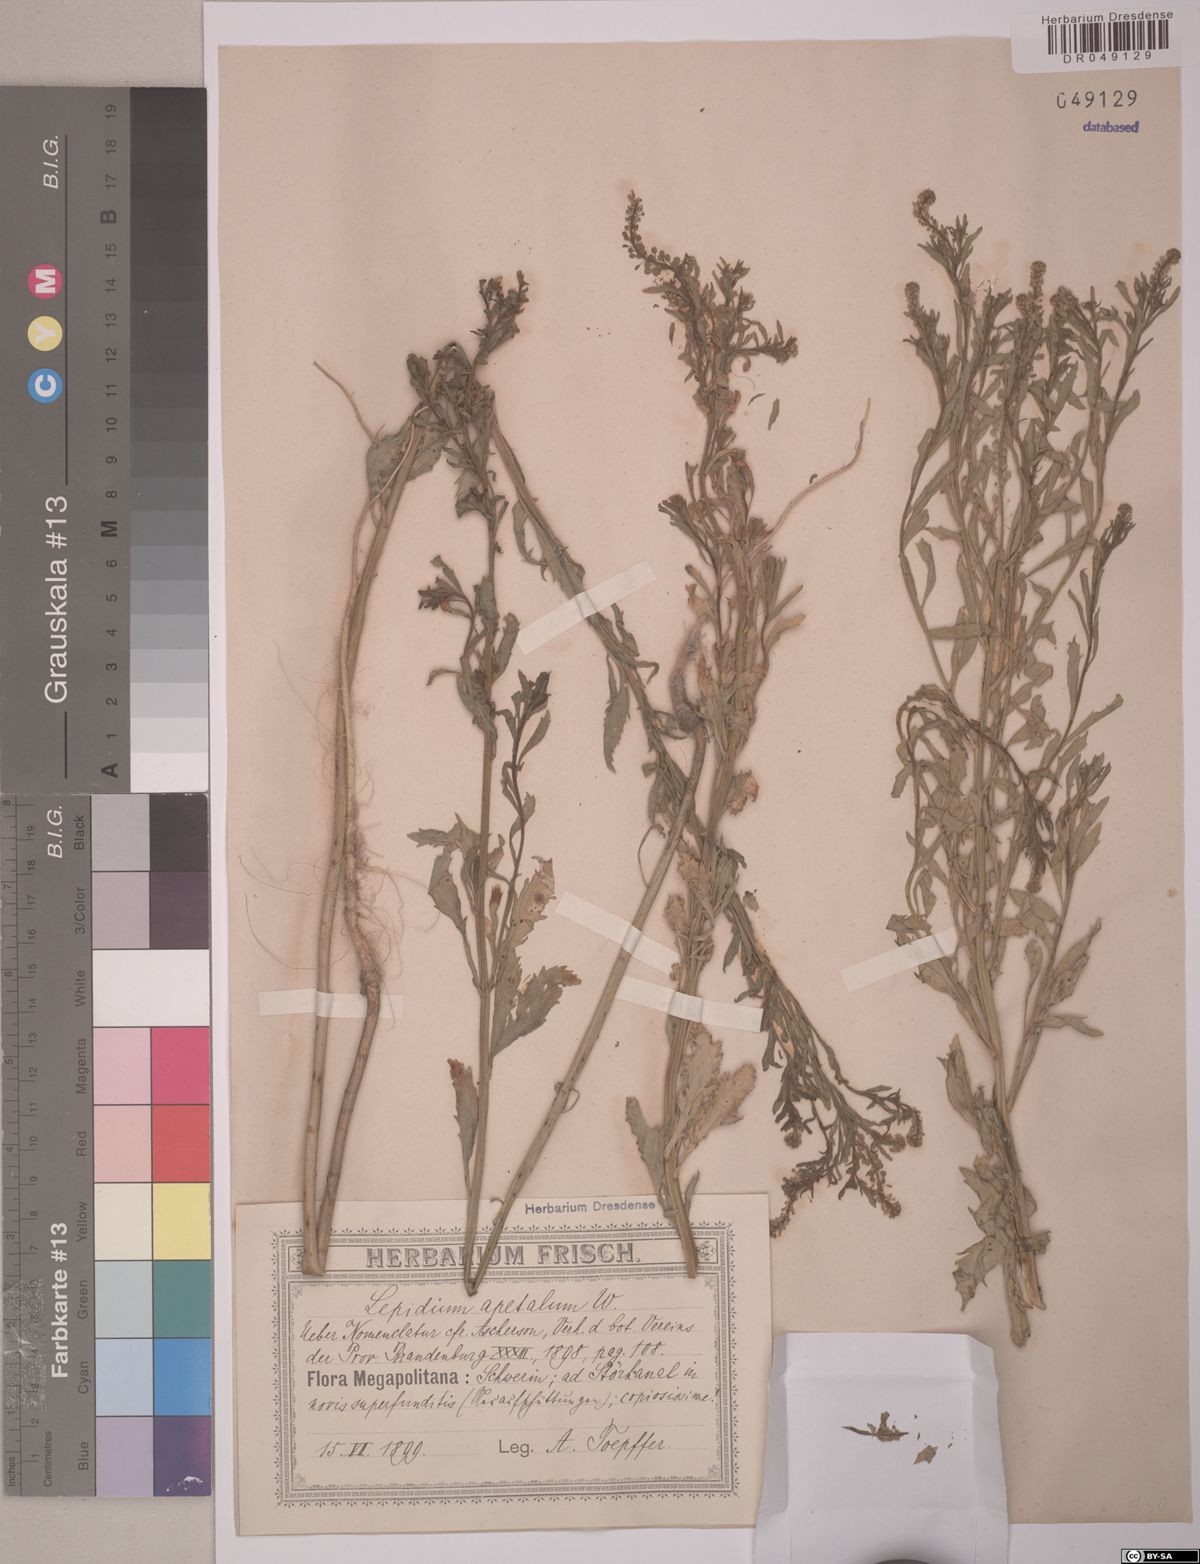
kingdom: Plantae
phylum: Tracheophyta
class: Magnoliopsida
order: Brassicales
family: Brassicaceae
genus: Lepidium
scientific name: Lepidium apetalum
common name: Pepperweed
